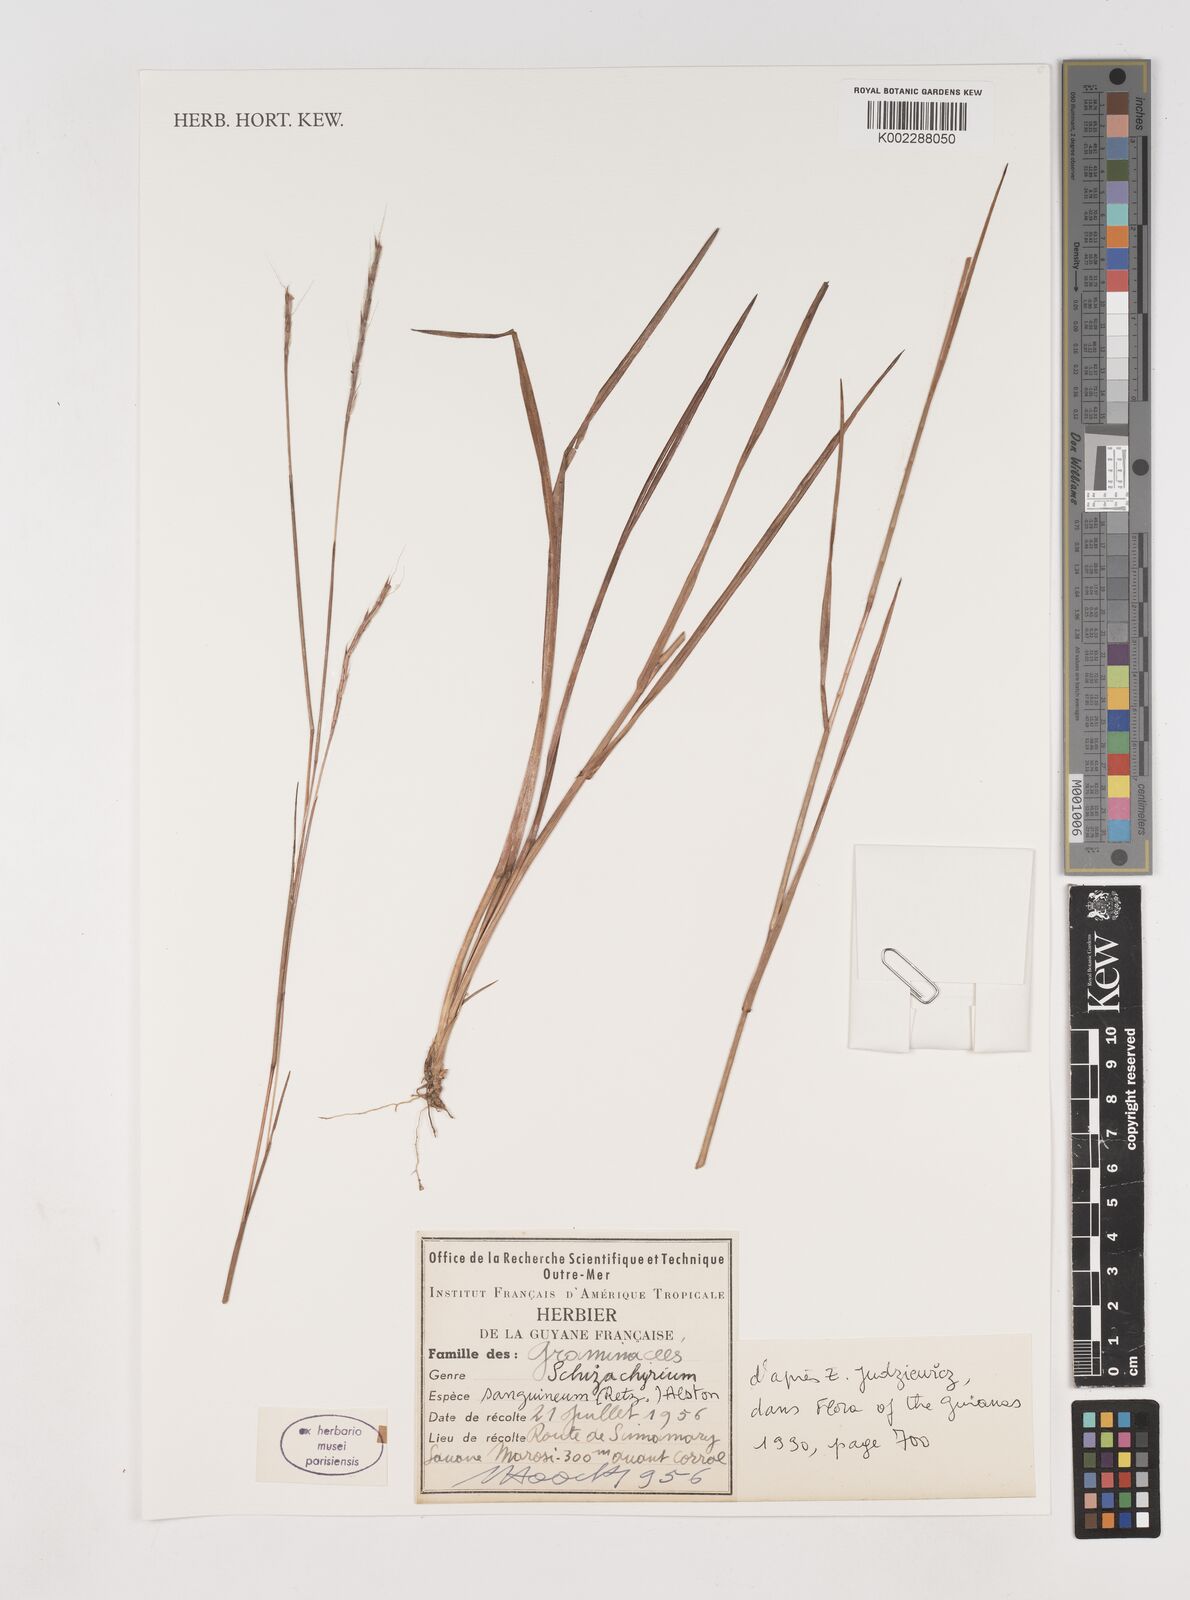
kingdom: Plantae
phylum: Tracheophyta
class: Liliopsida
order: Poales
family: Poaceae
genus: Schizachyrium
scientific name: Schizachyrium sanguineum
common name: Crimson bluestem
